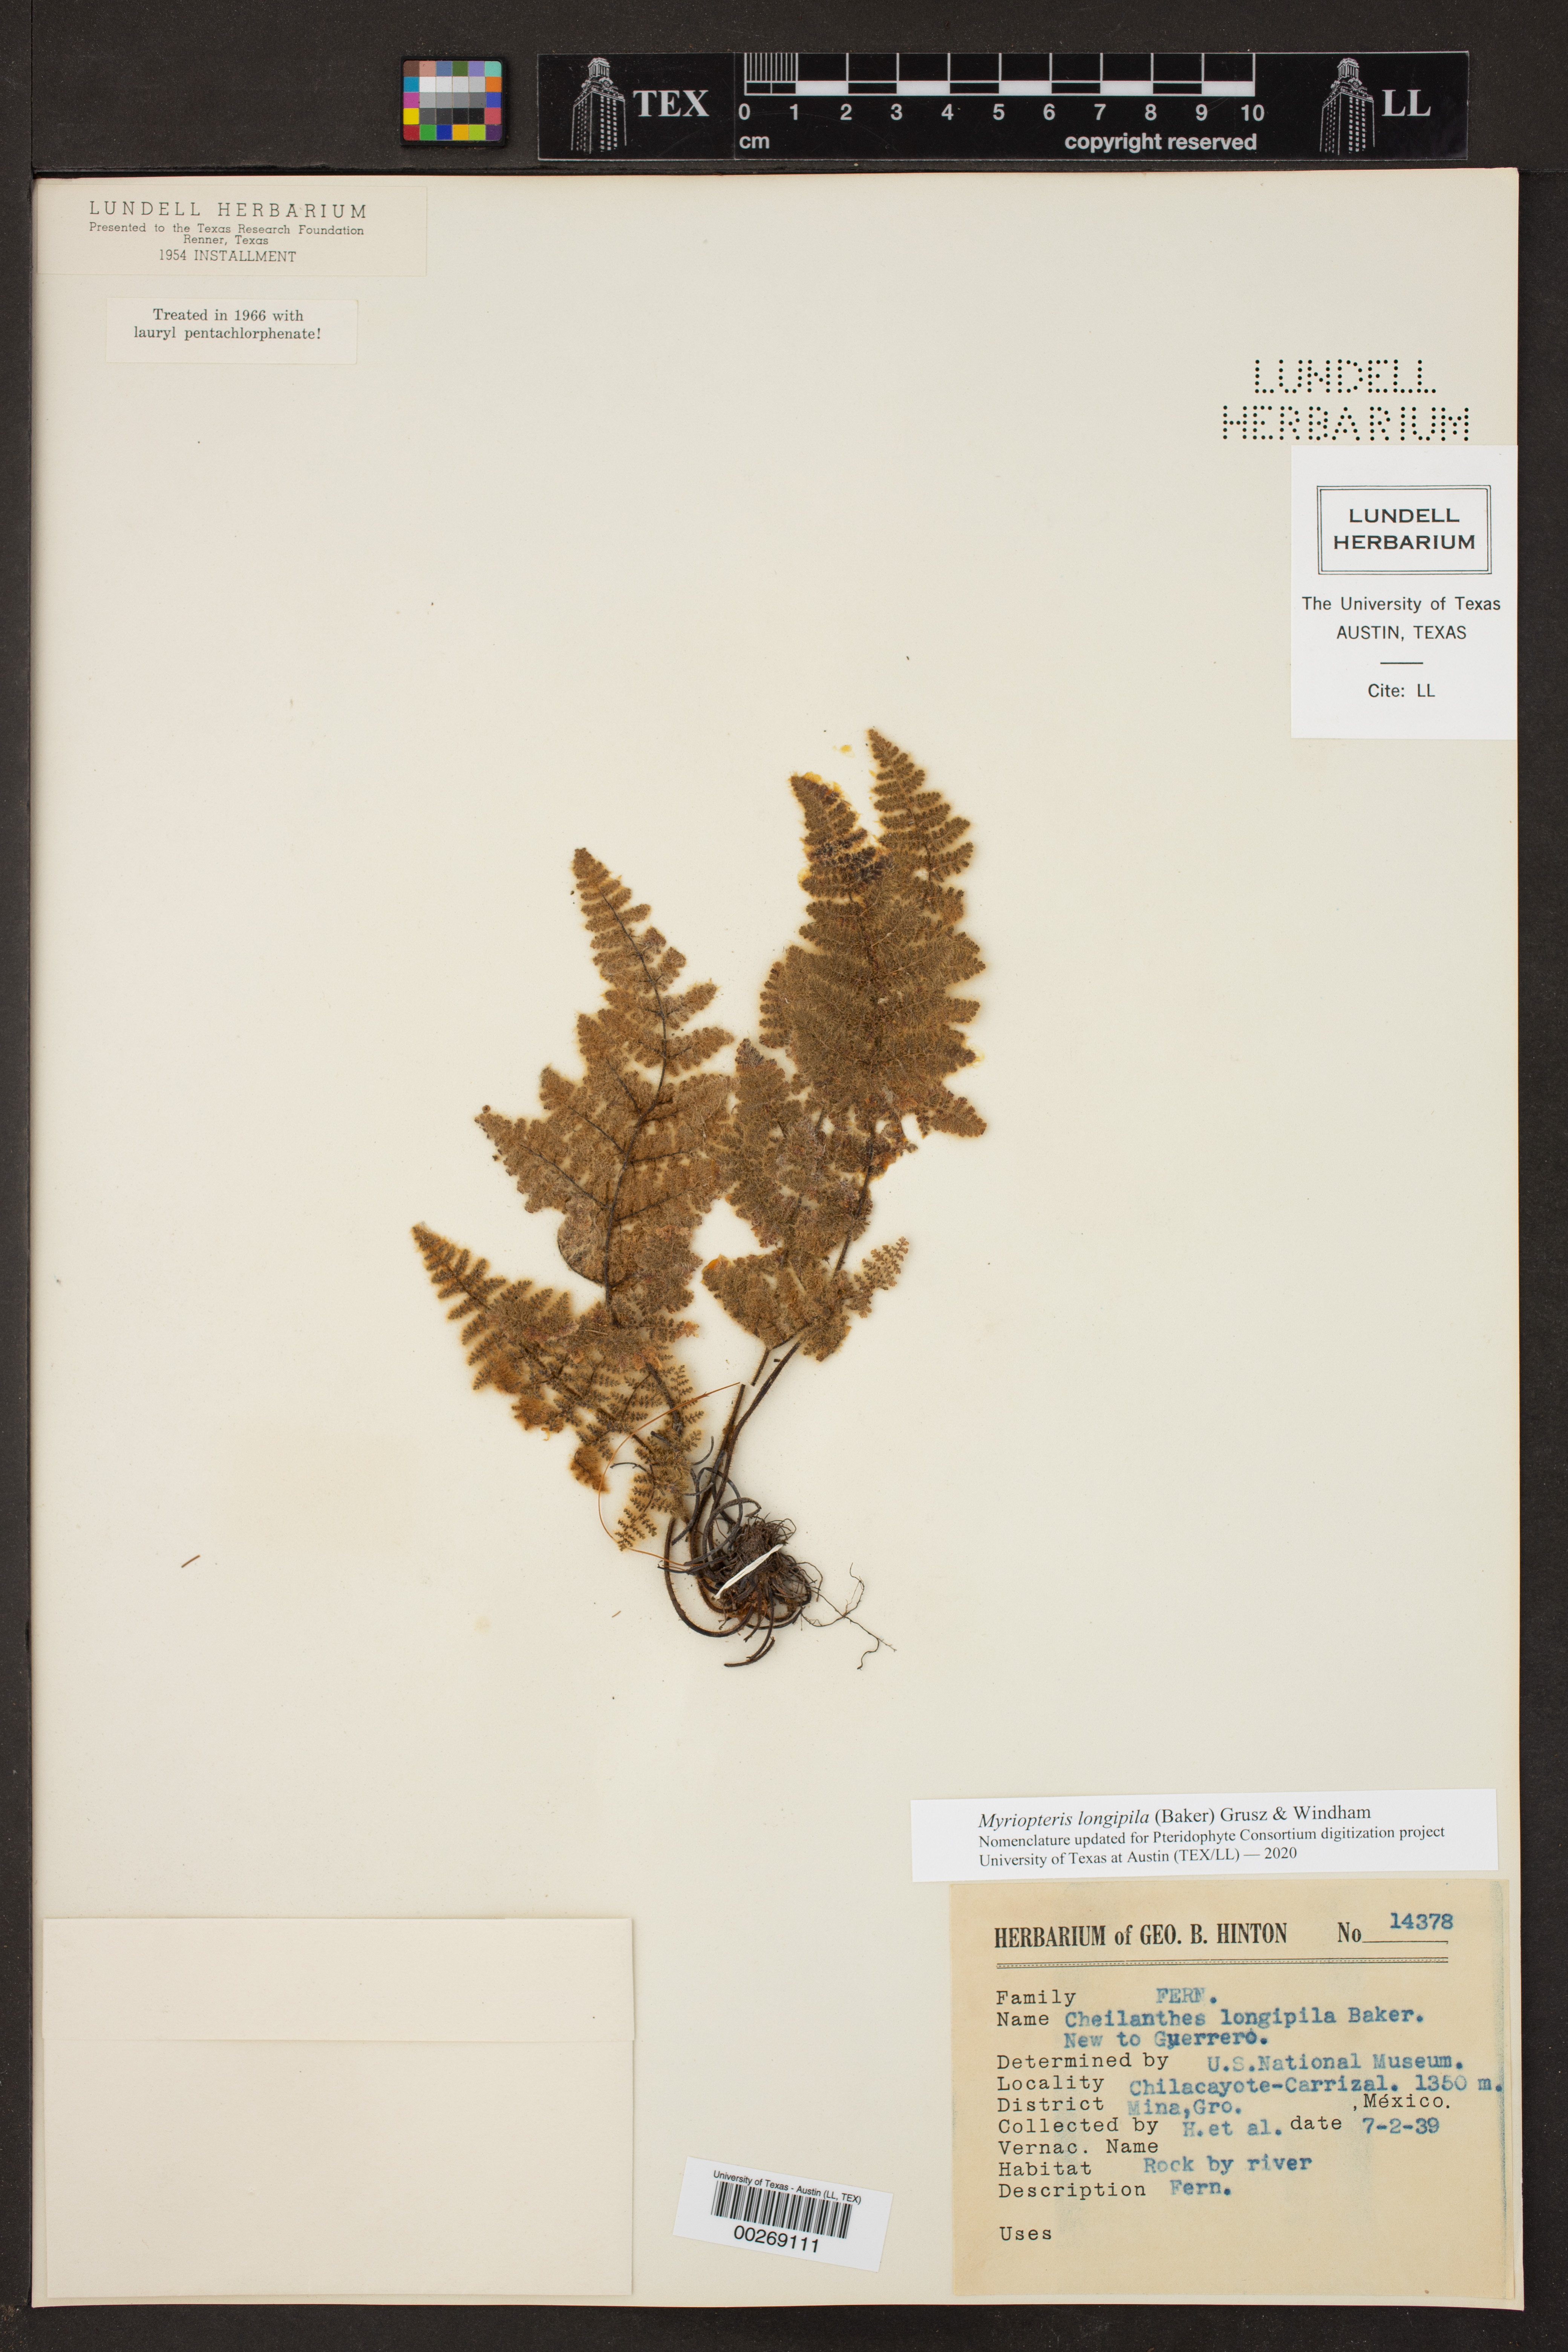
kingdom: Plantae
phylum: Tracheophyta
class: Polypodiopsida
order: Polypodiales
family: Pteridaceae
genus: Myriopteris
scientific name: Myriopteris longipila
